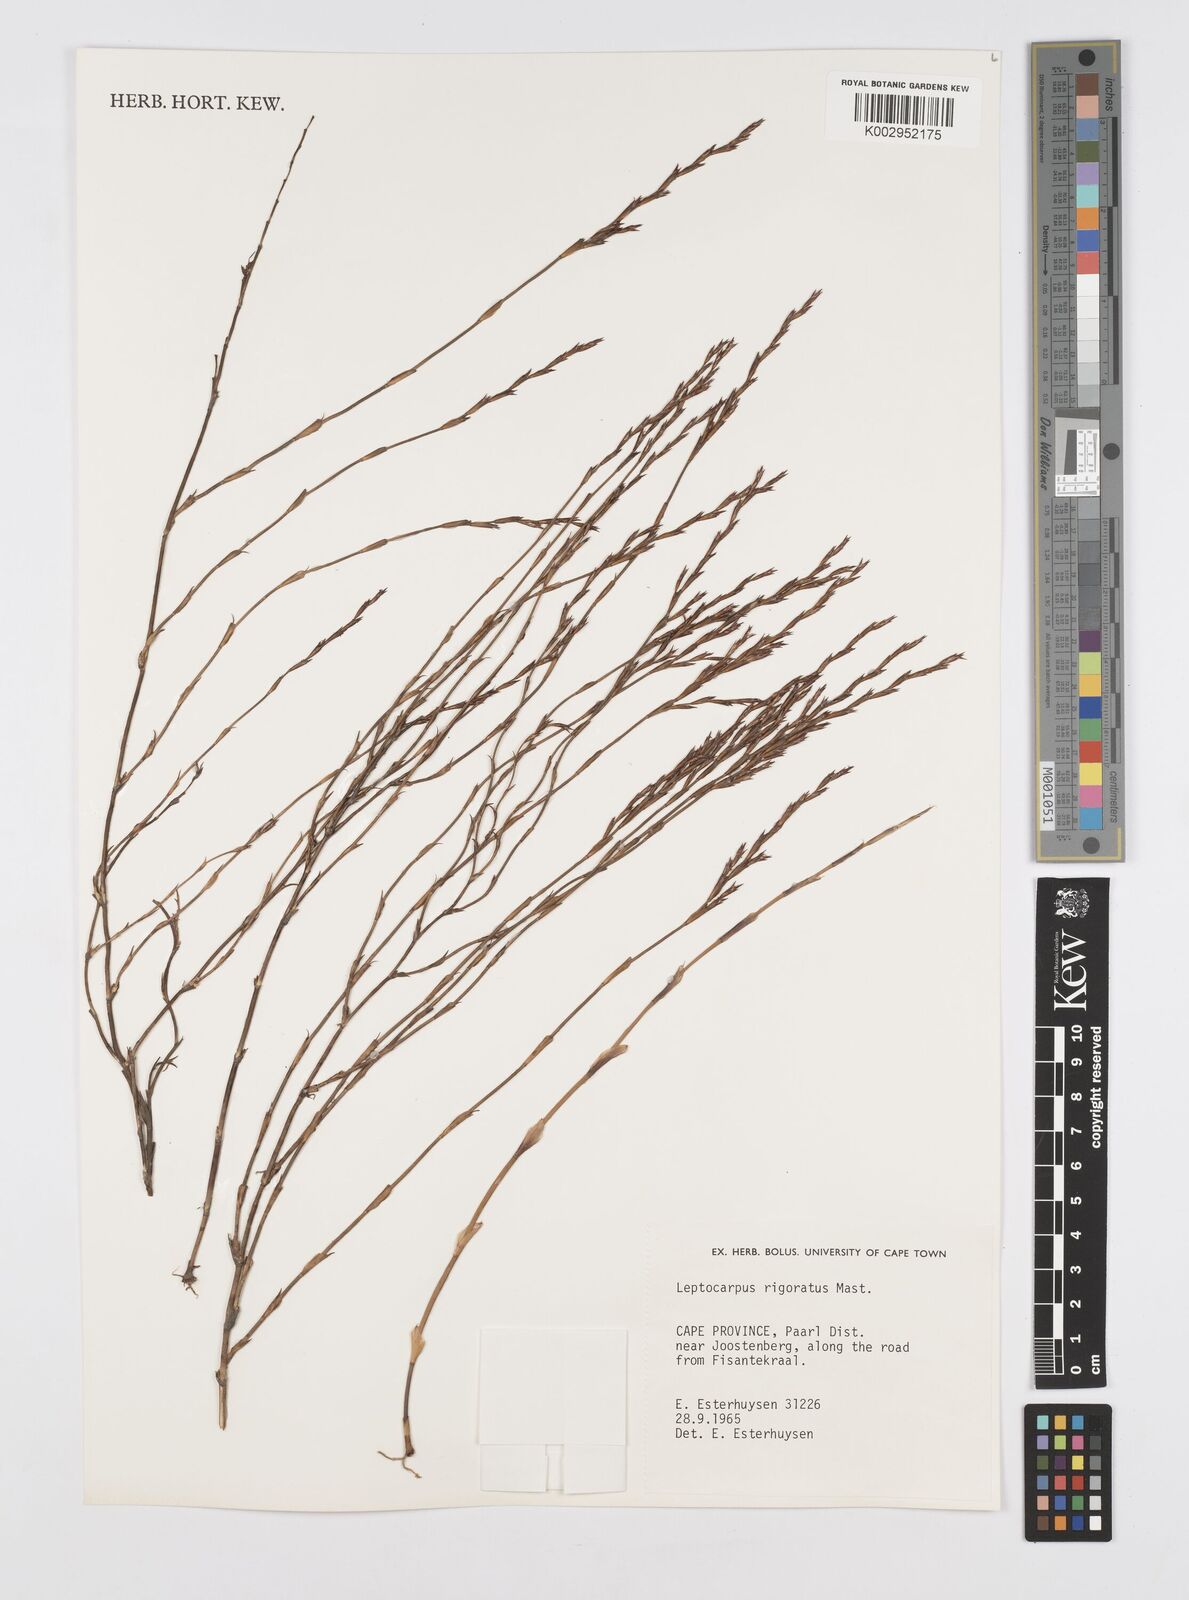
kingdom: Plantae
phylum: Tracheophyta
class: Liliopsida
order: Poales
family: Restionaceae
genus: Restio
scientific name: Restio rigoratus
